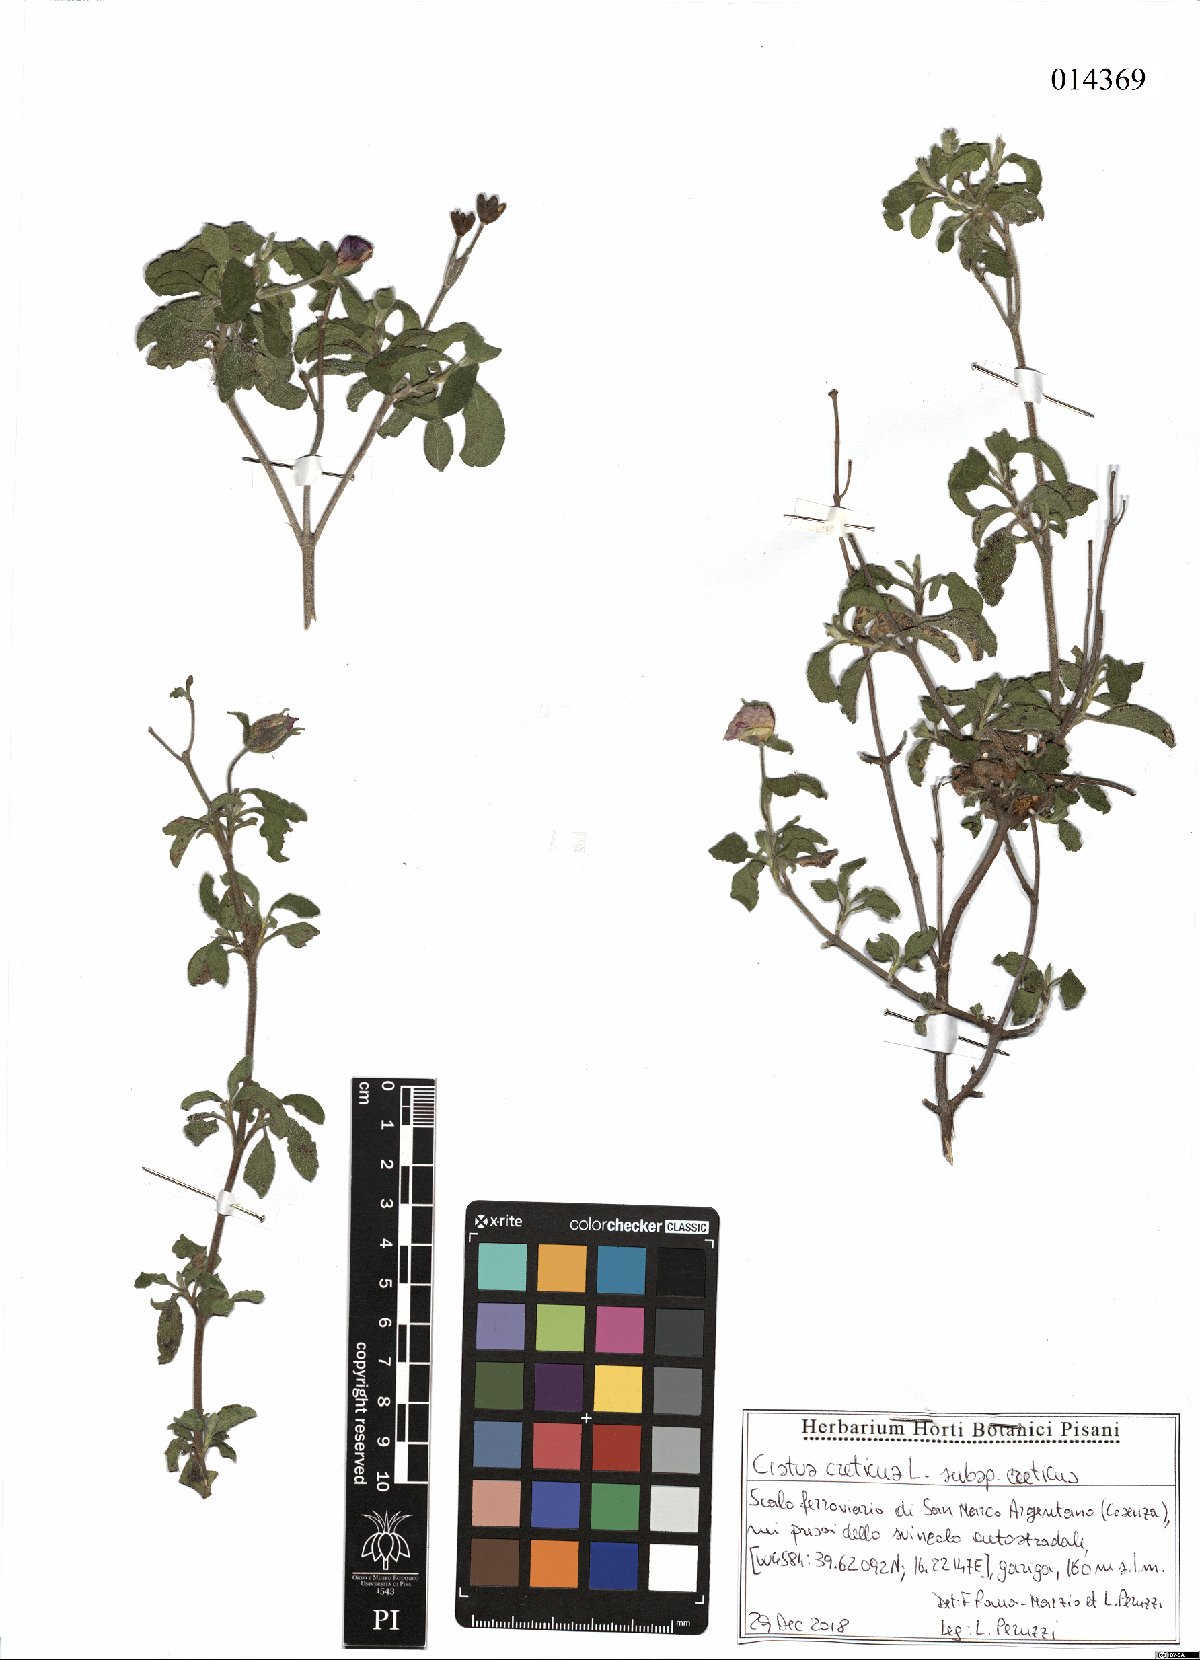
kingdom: Plantae
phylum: Tracheophyta
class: Magnoliopsida
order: Malvales
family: Cistaceae
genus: Cistus
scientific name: Cistus creticus
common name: Cretan rockrose
